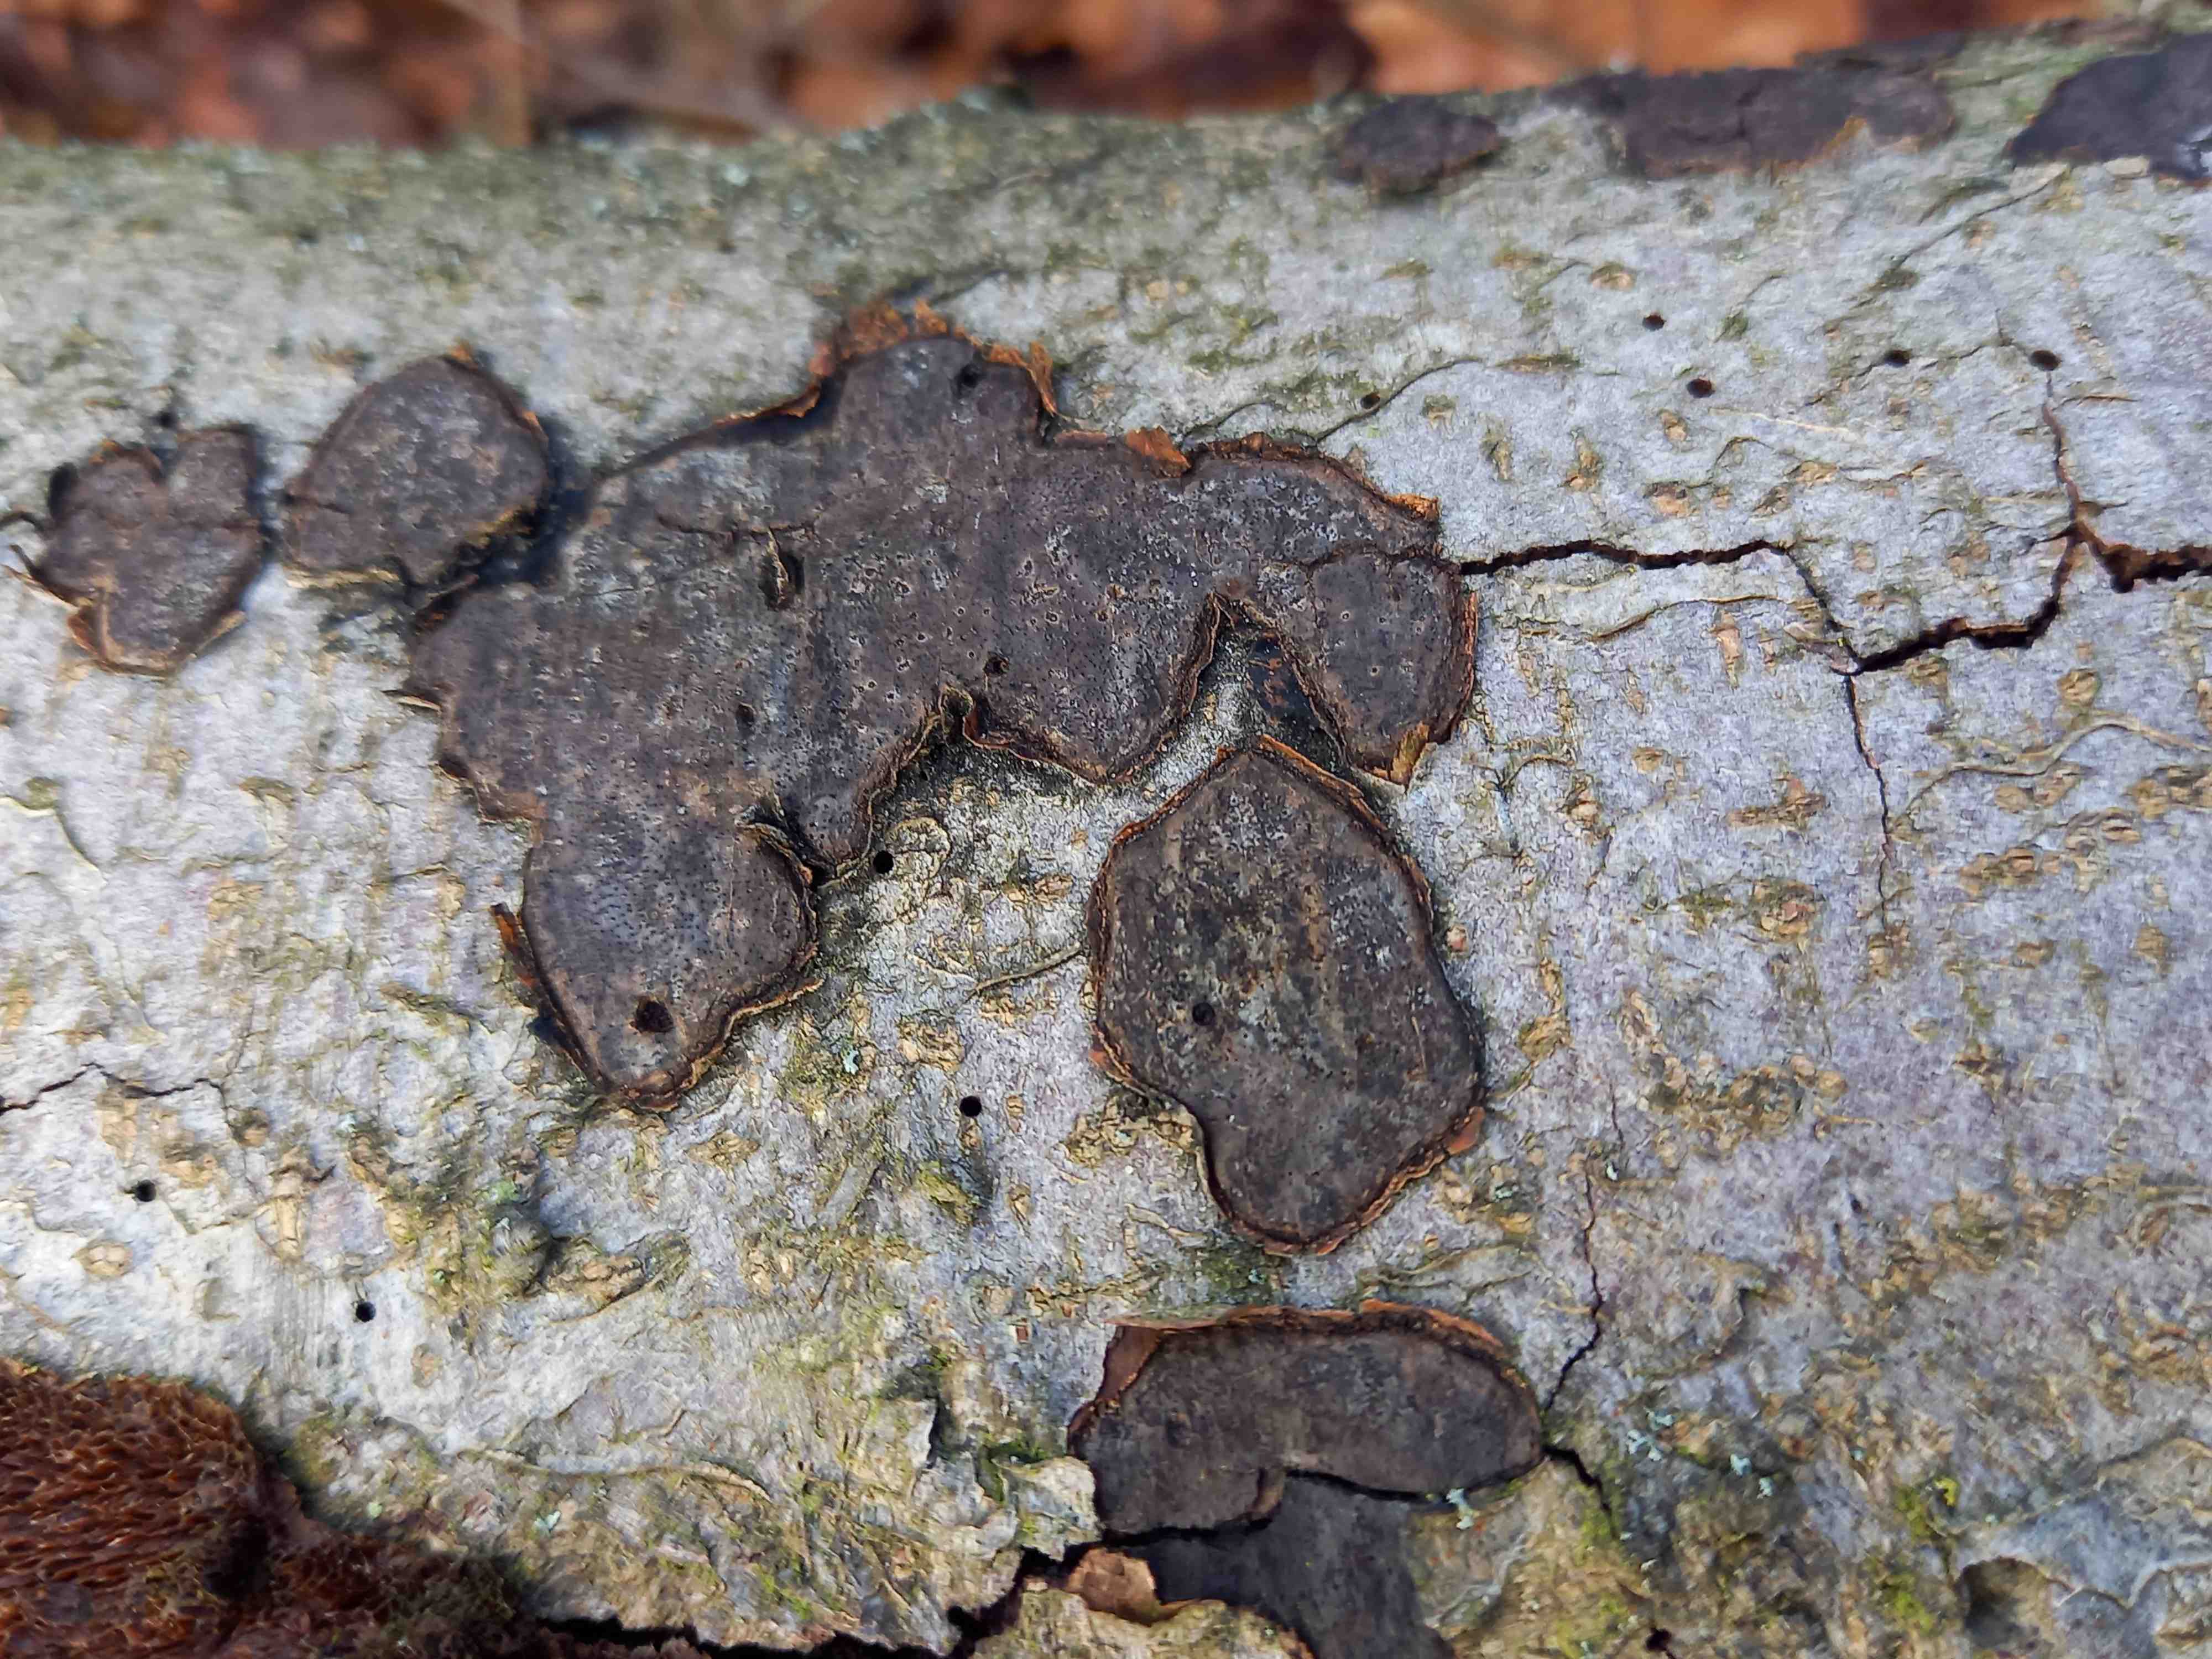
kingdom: Fungi
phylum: Ascomycota
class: Sordariomycetes
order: Xylariales
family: Graphostromataceae
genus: Biscogniauxia
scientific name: Biscogniauxia nummularia
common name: bøge-kulskive
